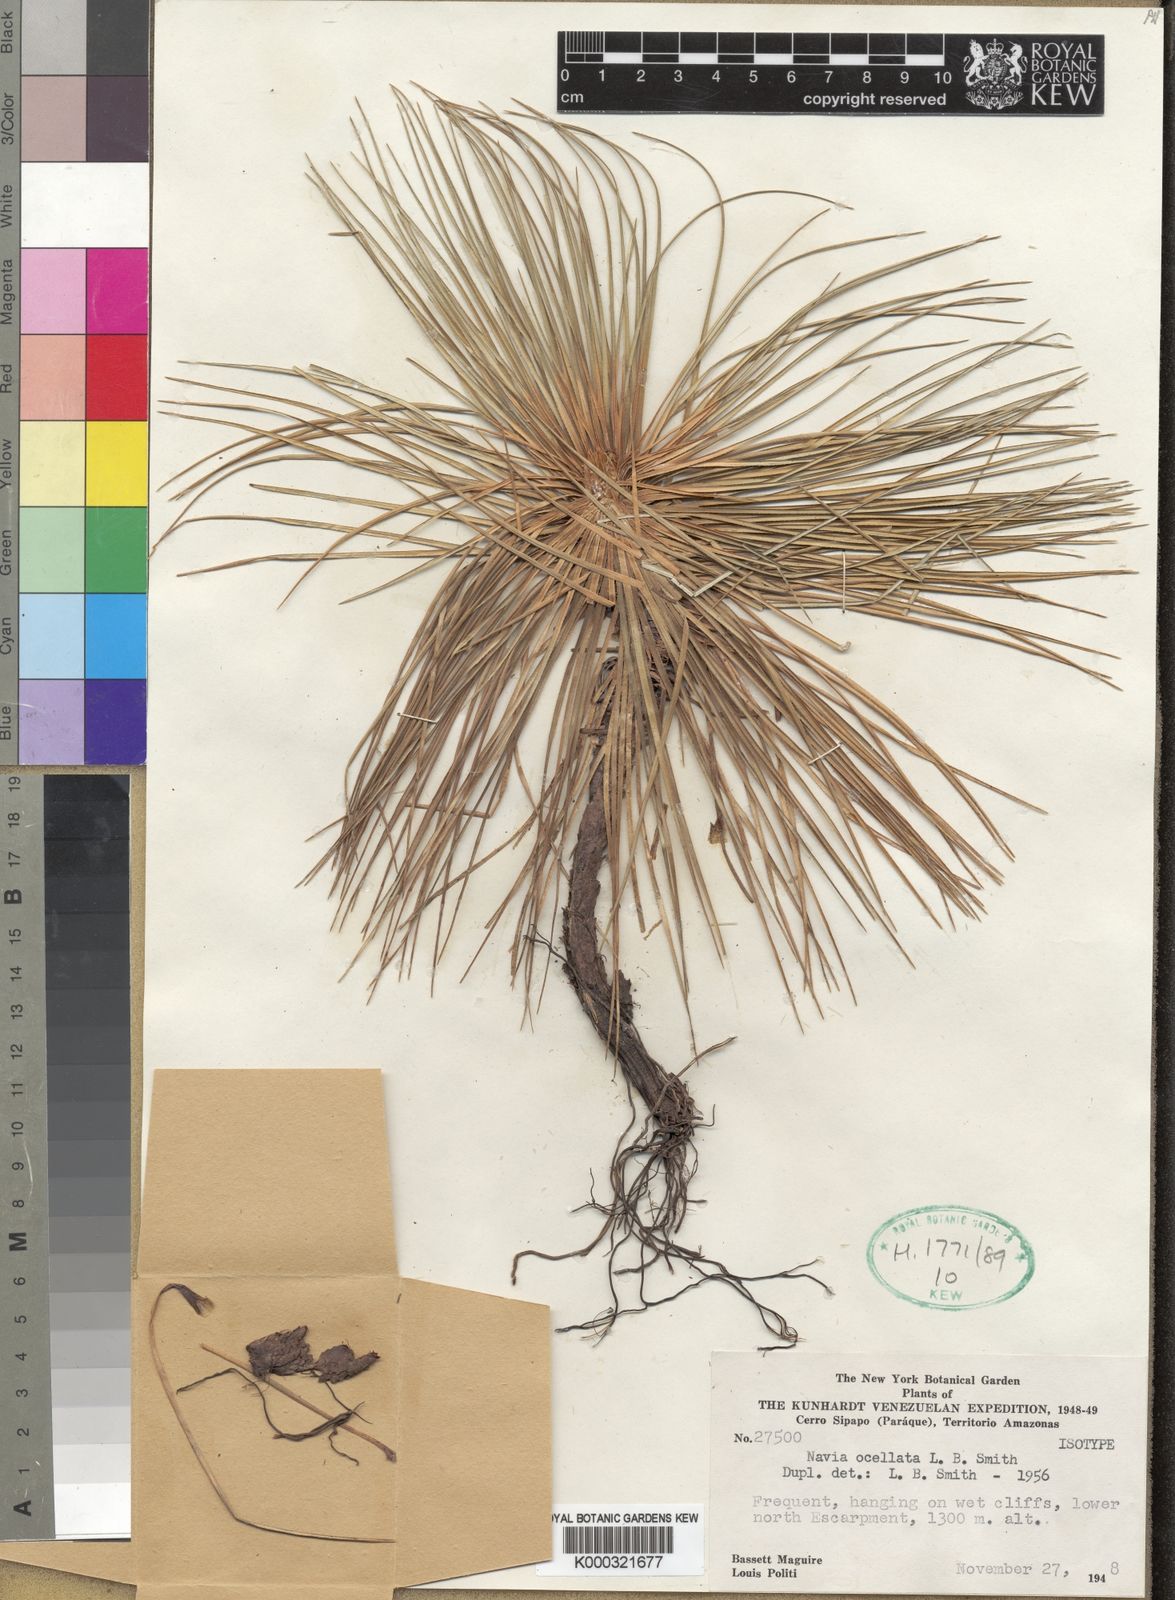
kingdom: Plantae
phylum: Tracheophyta
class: Liliopsida
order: Poales
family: Bromeliaceae
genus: Navia
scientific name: Navia ocellata
